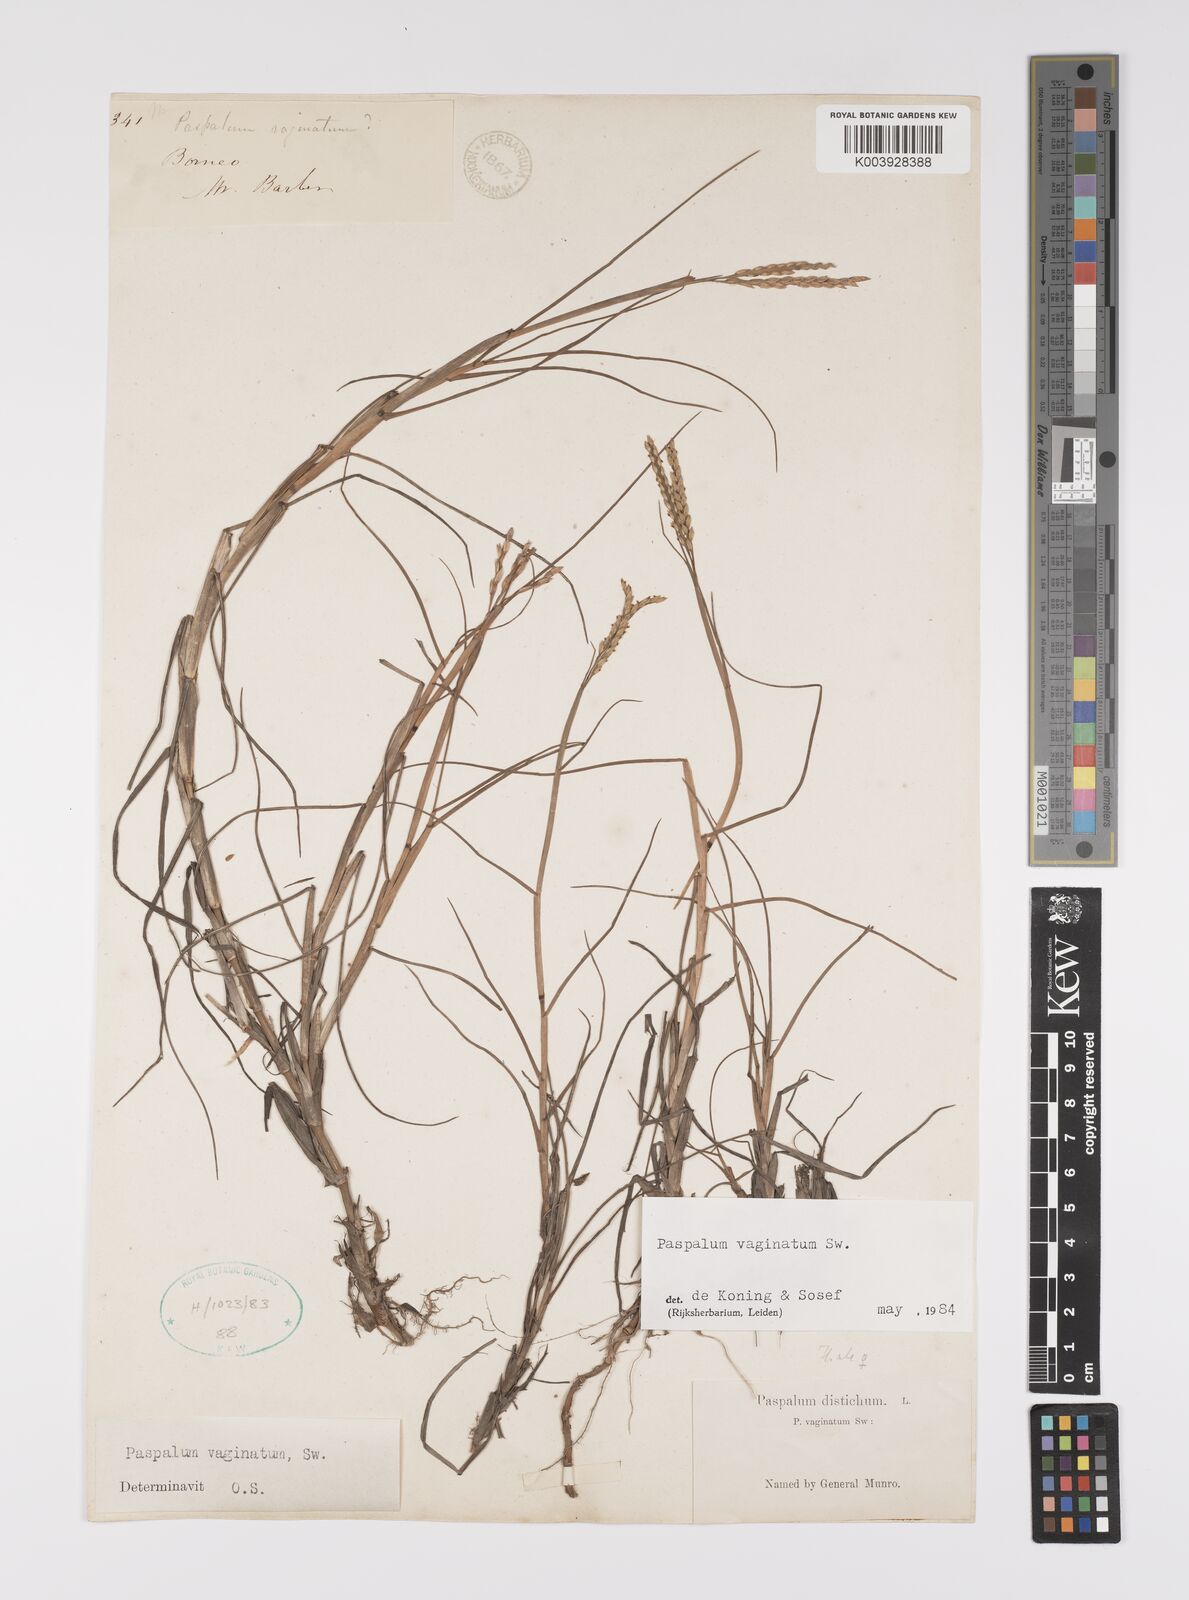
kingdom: Plantae
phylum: Tracheophyta
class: Liliopsida
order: Poales
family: Poaceae
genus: Paspalum
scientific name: Paspalum vaginatum
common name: Seashore paspalum
